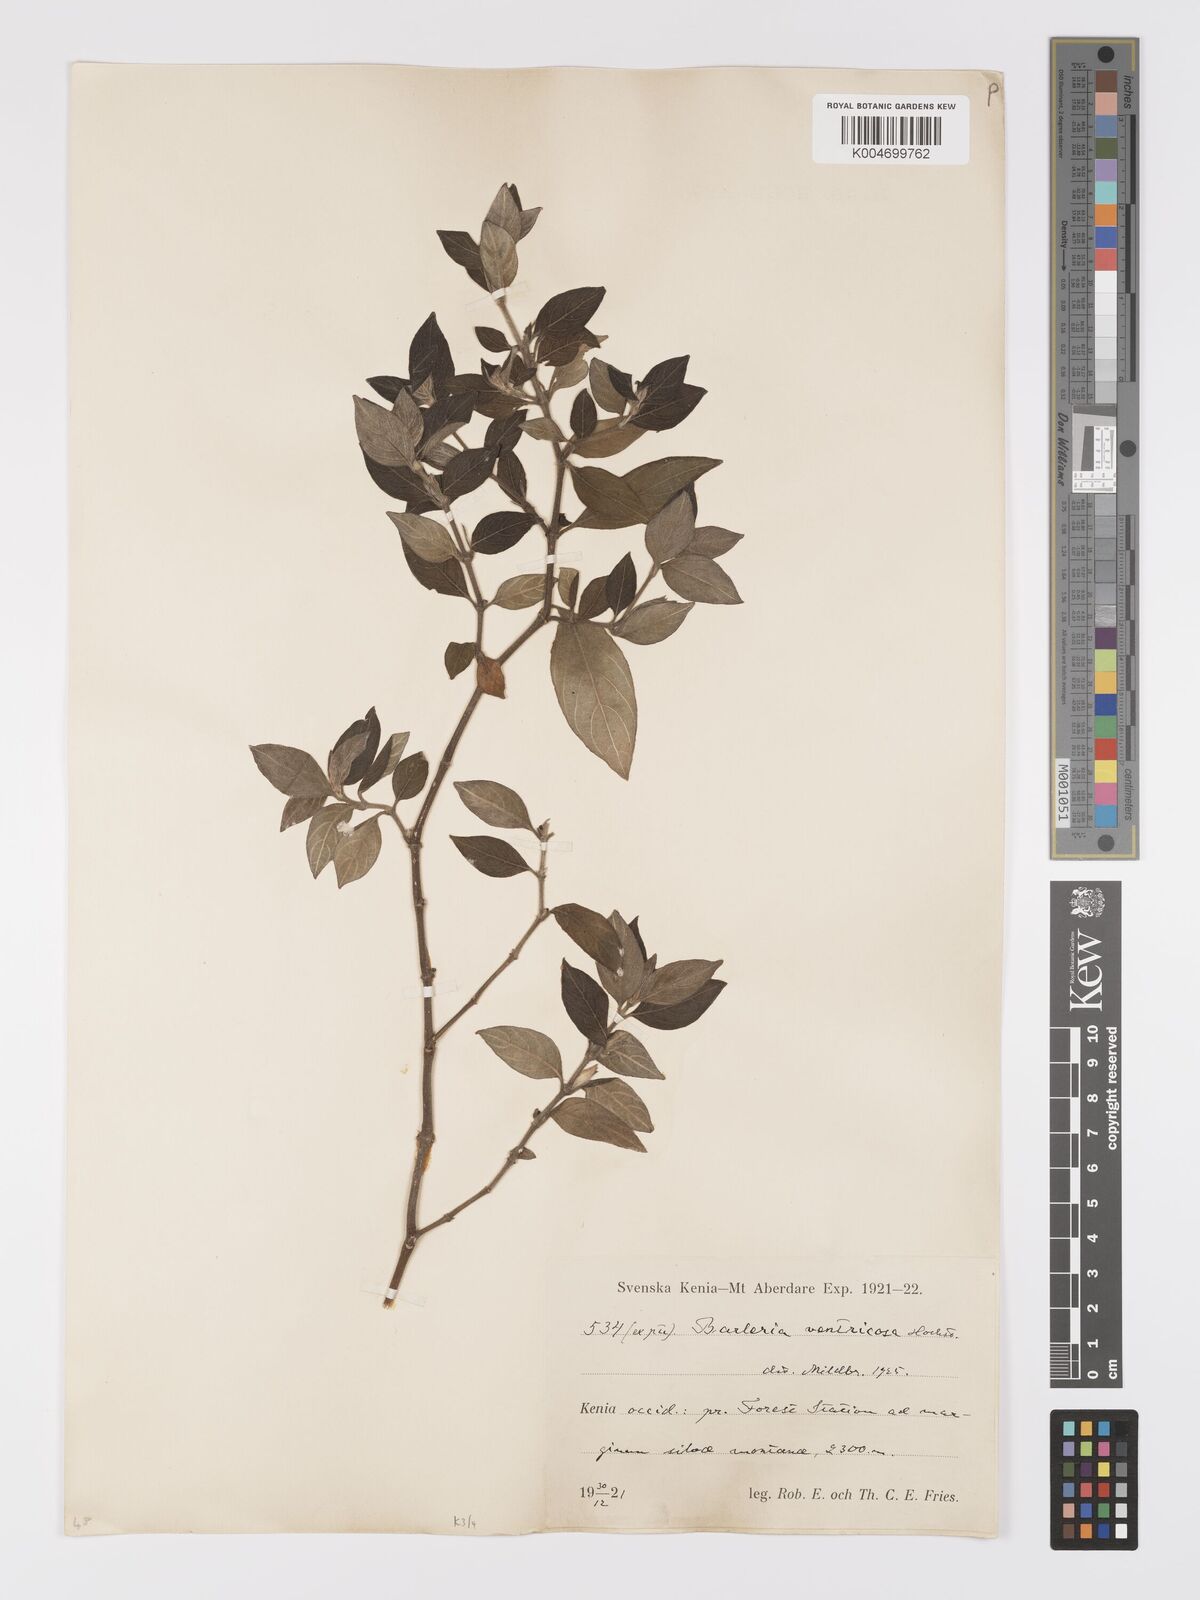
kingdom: Plantae
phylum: Tracheophyta
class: Magnoliopsida
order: Lamiales
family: Acanthaceae
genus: Barleria
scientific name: Barleria ventricosa
